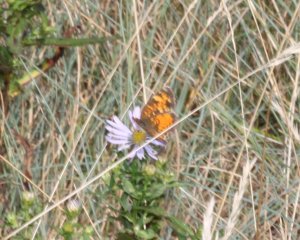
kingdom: Animalia
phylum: Arthropoda
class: Insecta
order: Lepidoptera
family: Nymphalidae
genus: Phyciodes
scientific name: Phyciodes tharos
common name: Northern Crescent
